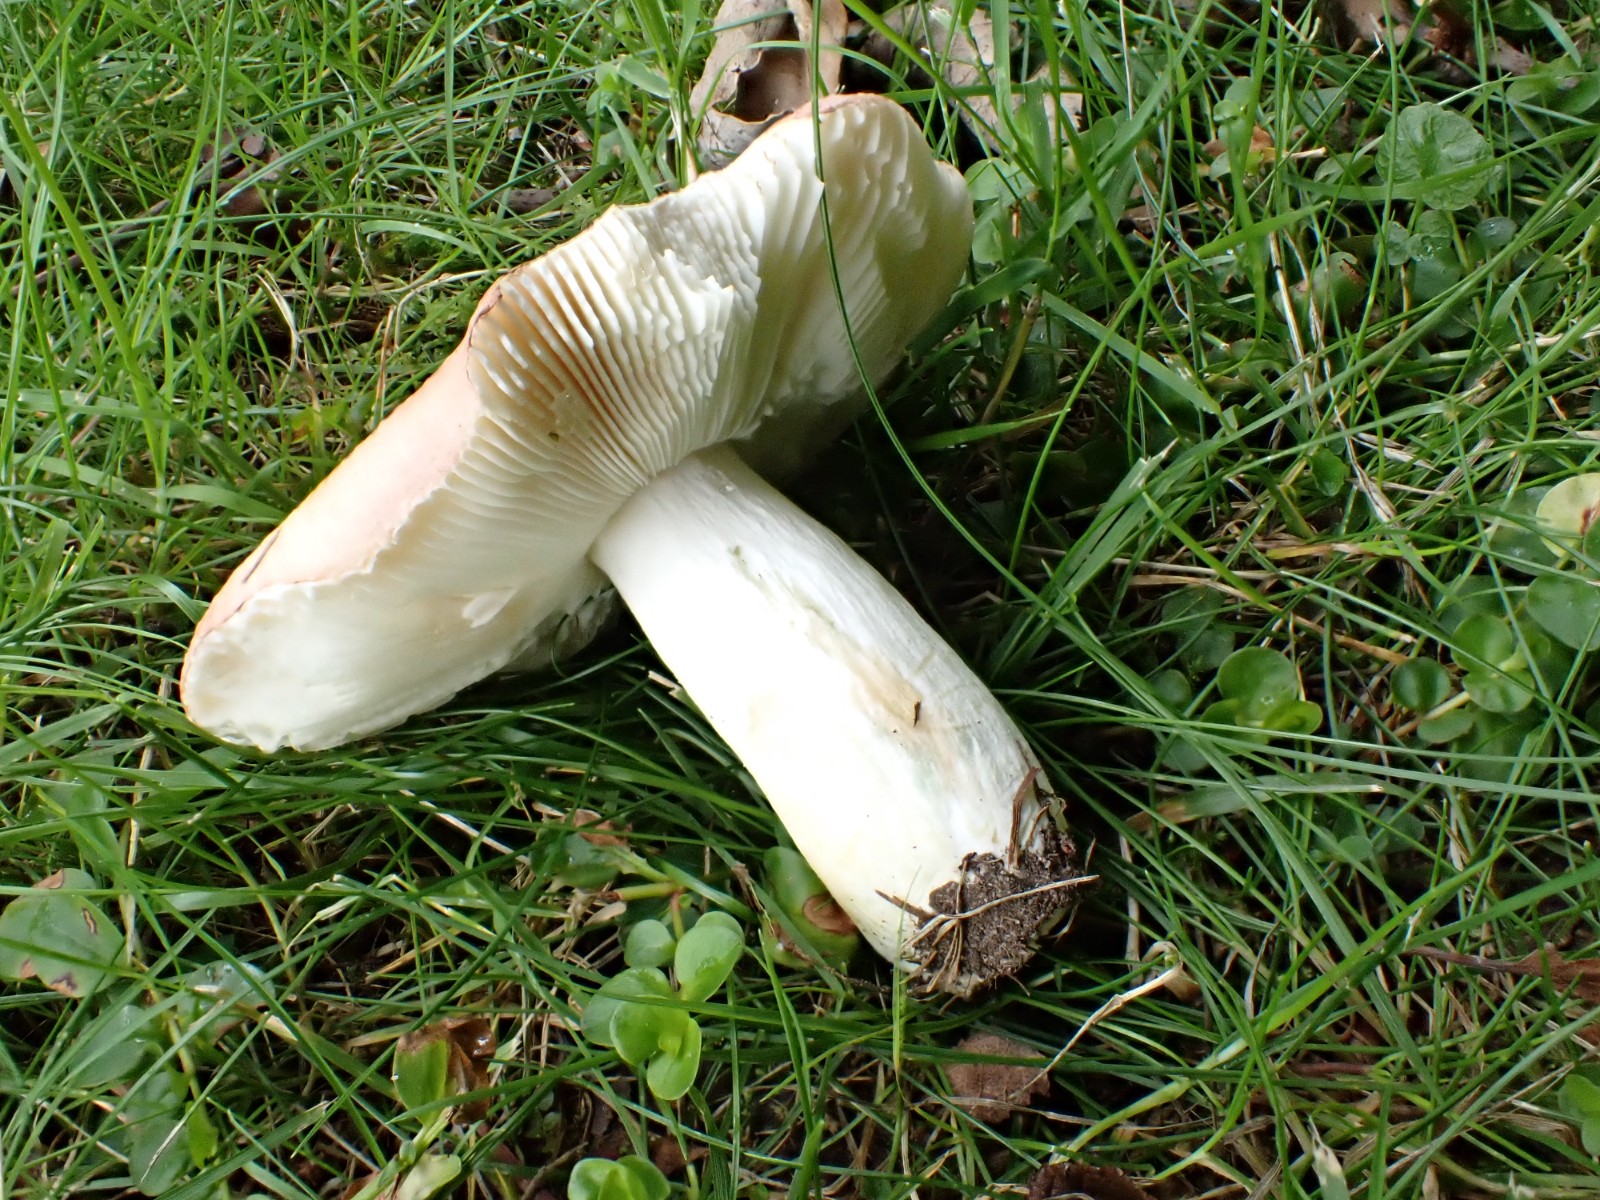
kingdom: Fungi
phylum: Basidiomycota
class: Agaricomycetes
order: Russulales
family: Russulaceae
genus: Russula
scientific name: Russula graveolens
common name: bugtet skørhat
